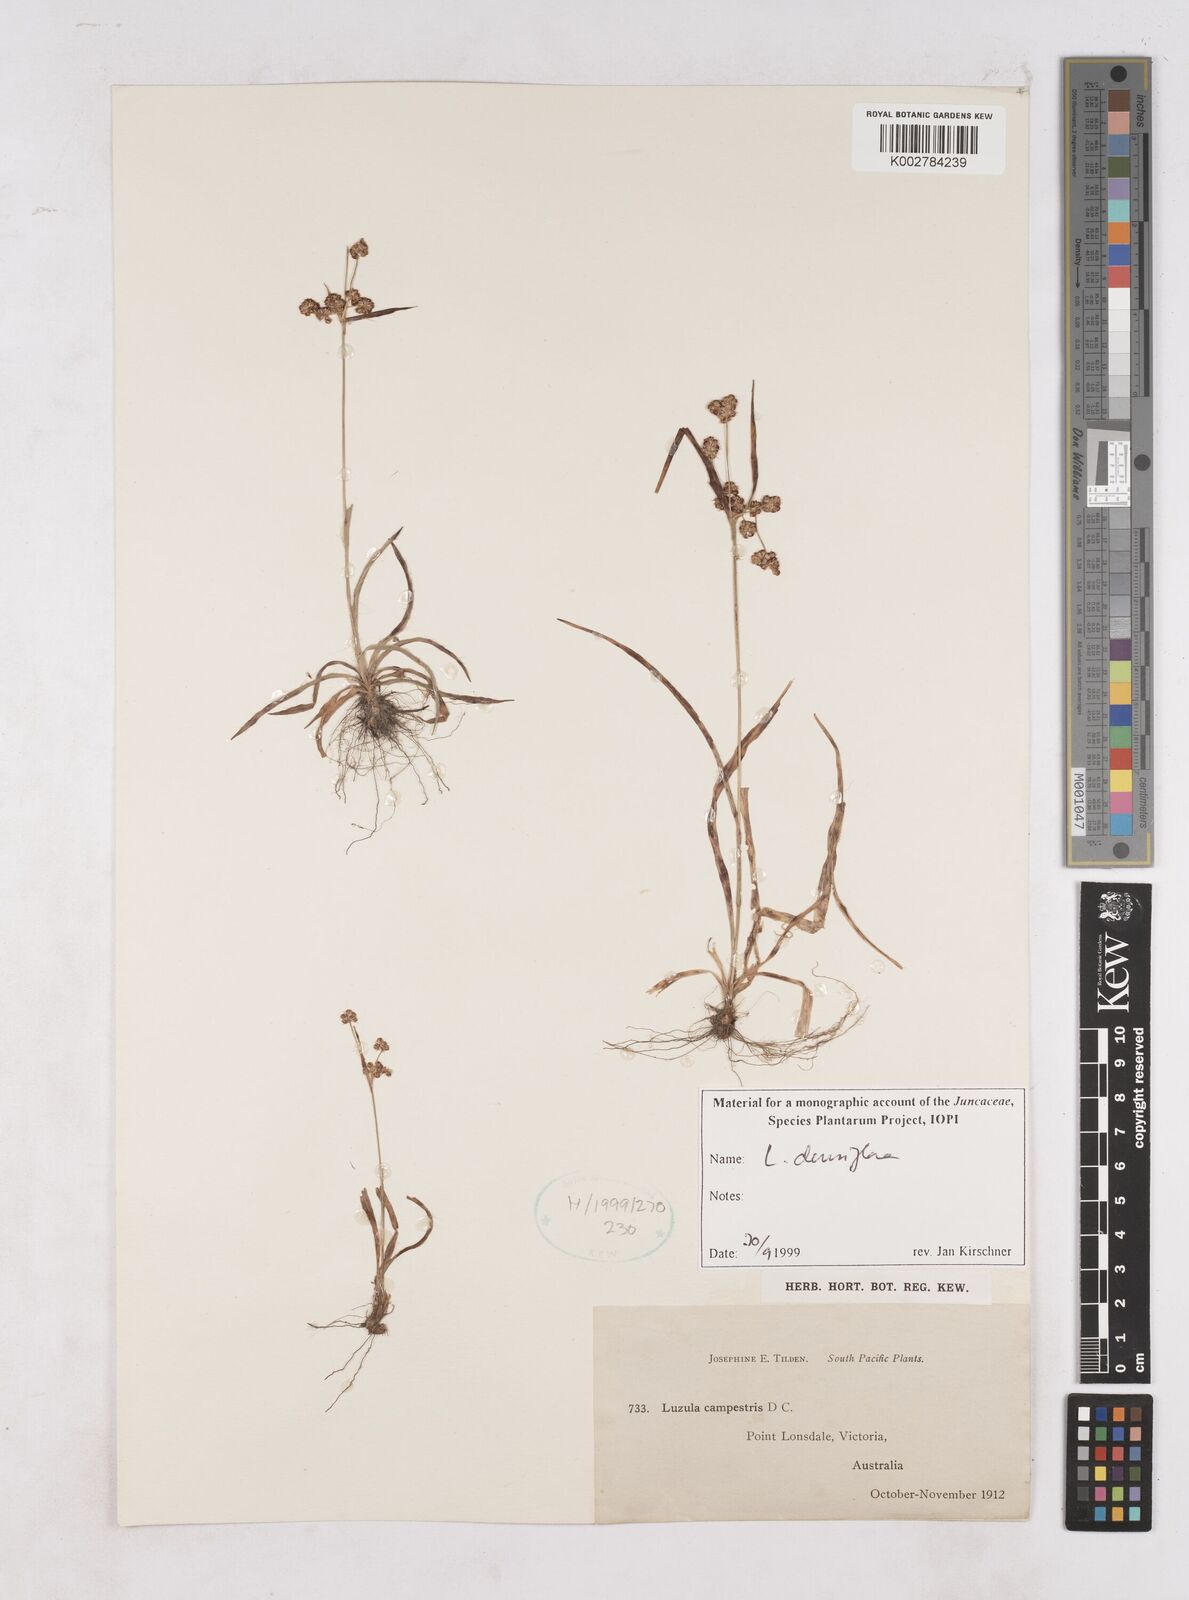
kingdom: Plantae
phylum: Tracheophyta
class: Liliopsida
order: Poales
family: Juncaceae
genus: Luzula
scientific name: Luzula densiflora
